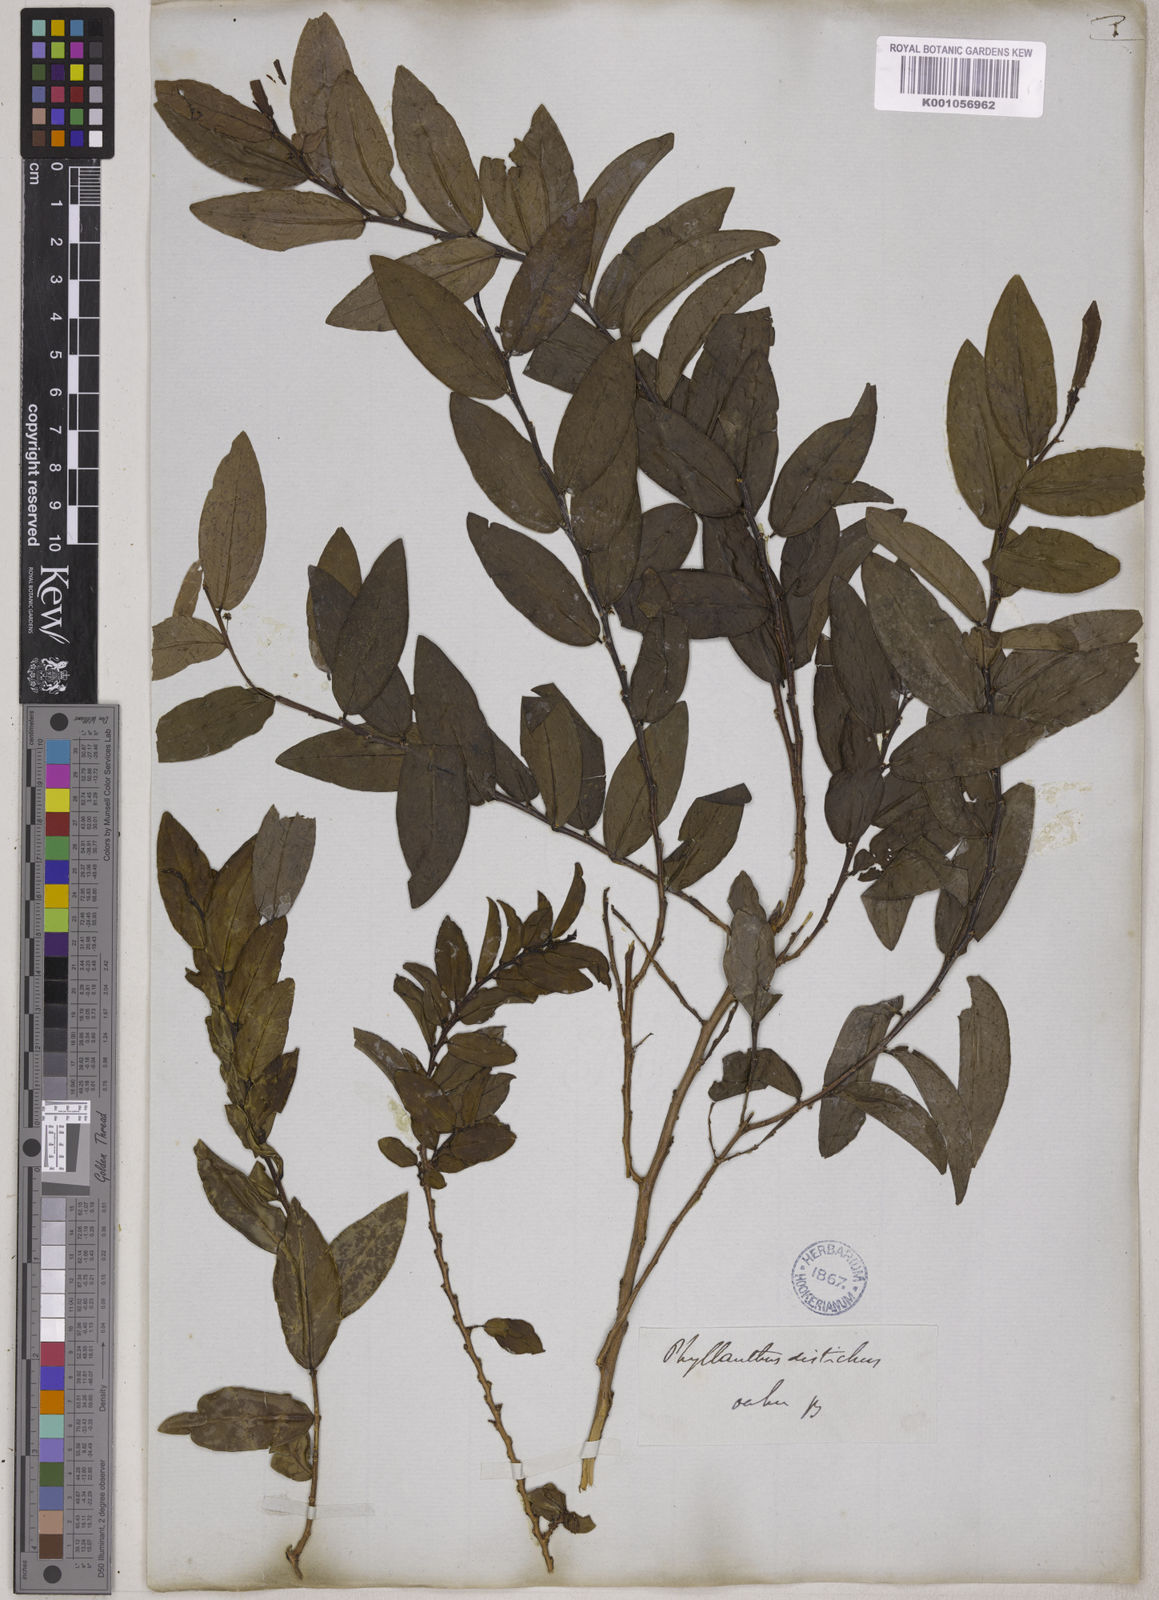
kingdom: Plantae
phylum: Tracheophyta
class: Magnoliopsida
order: Malpighiales
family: Phyllanthaceae
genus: Phyllanthus
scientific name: Phyllanthus distichus
